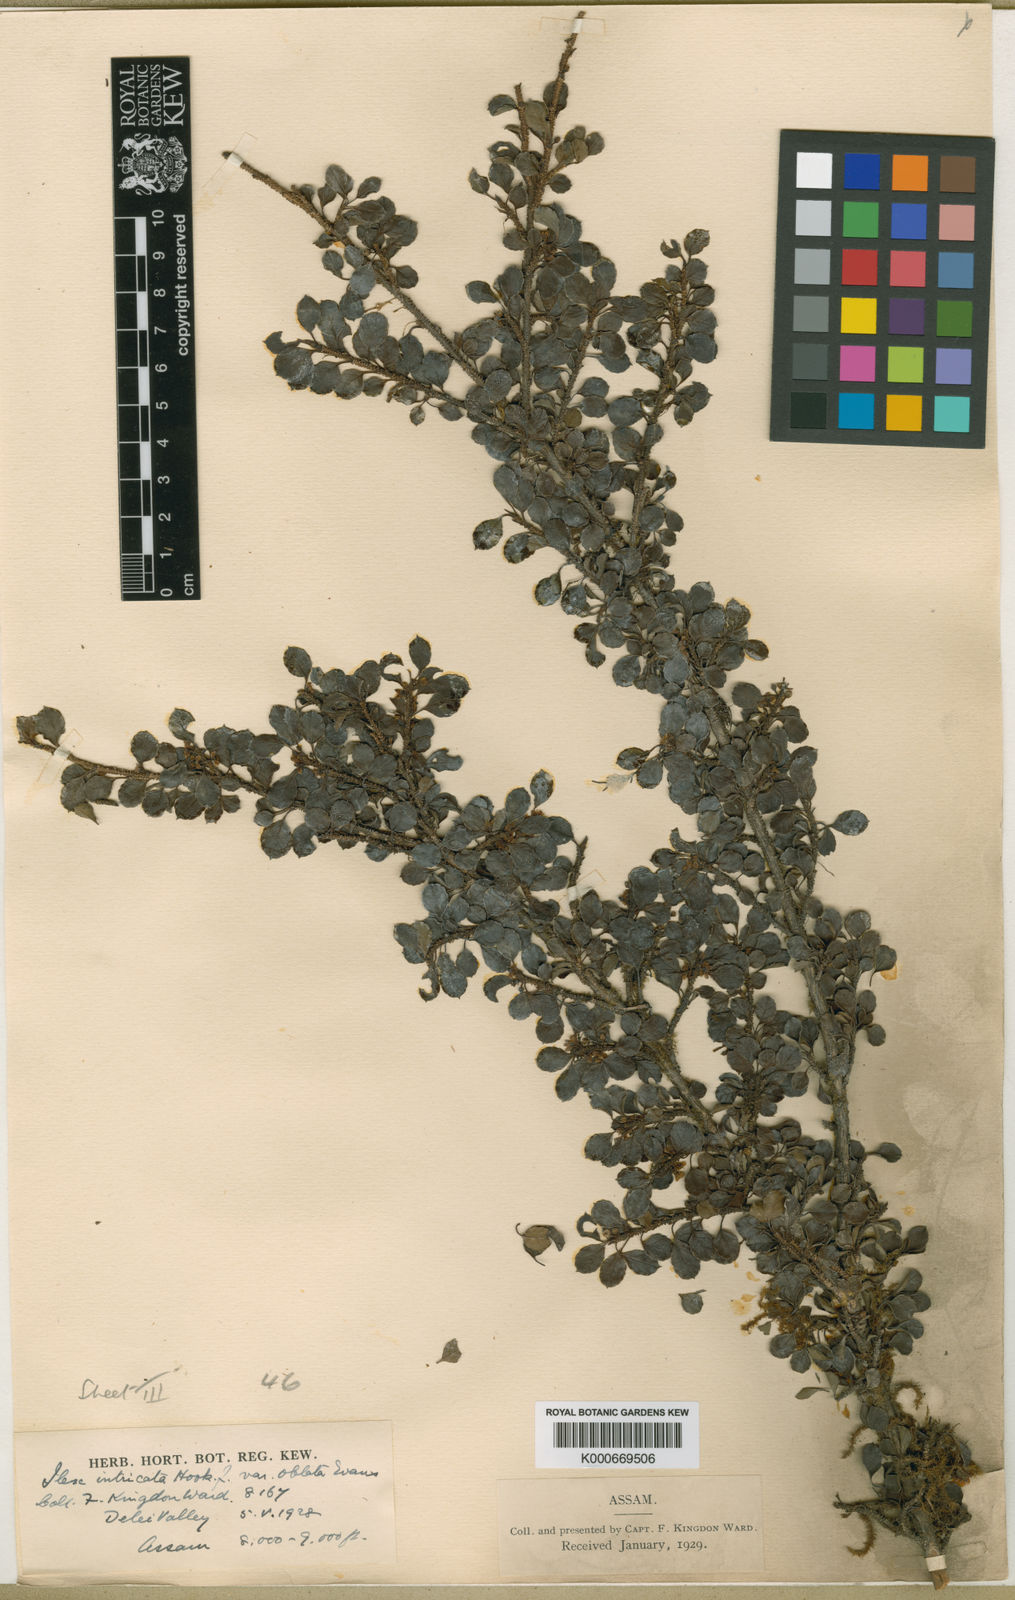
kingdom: Plantae
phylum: Tracheophyta
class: Magnoliopsida
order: Aquifoliales
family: Aquifoliaceae
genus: Ilex
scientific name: Ilex nothofagifolia
